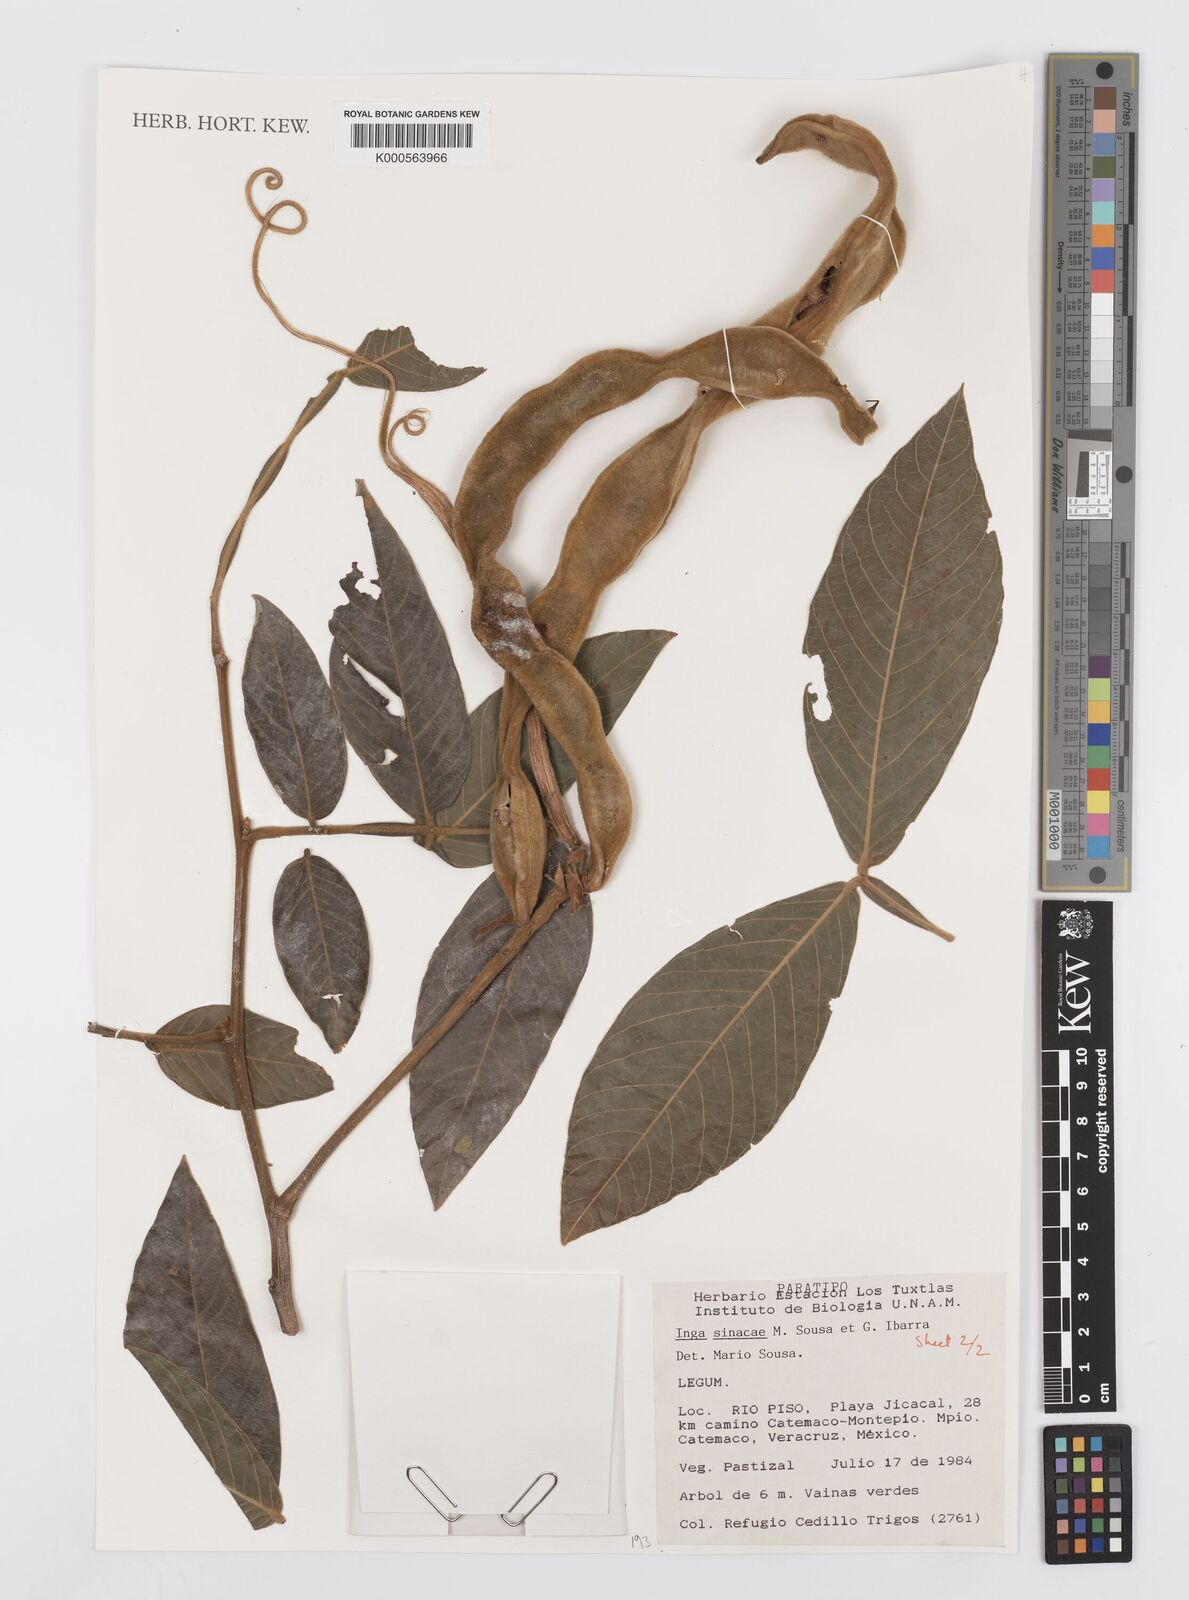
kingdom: Plantae
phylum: Tracheophyta
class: Magnoliopsida
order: Fabales
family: Fabaceae
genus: Inga
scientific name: Inga sinacae
